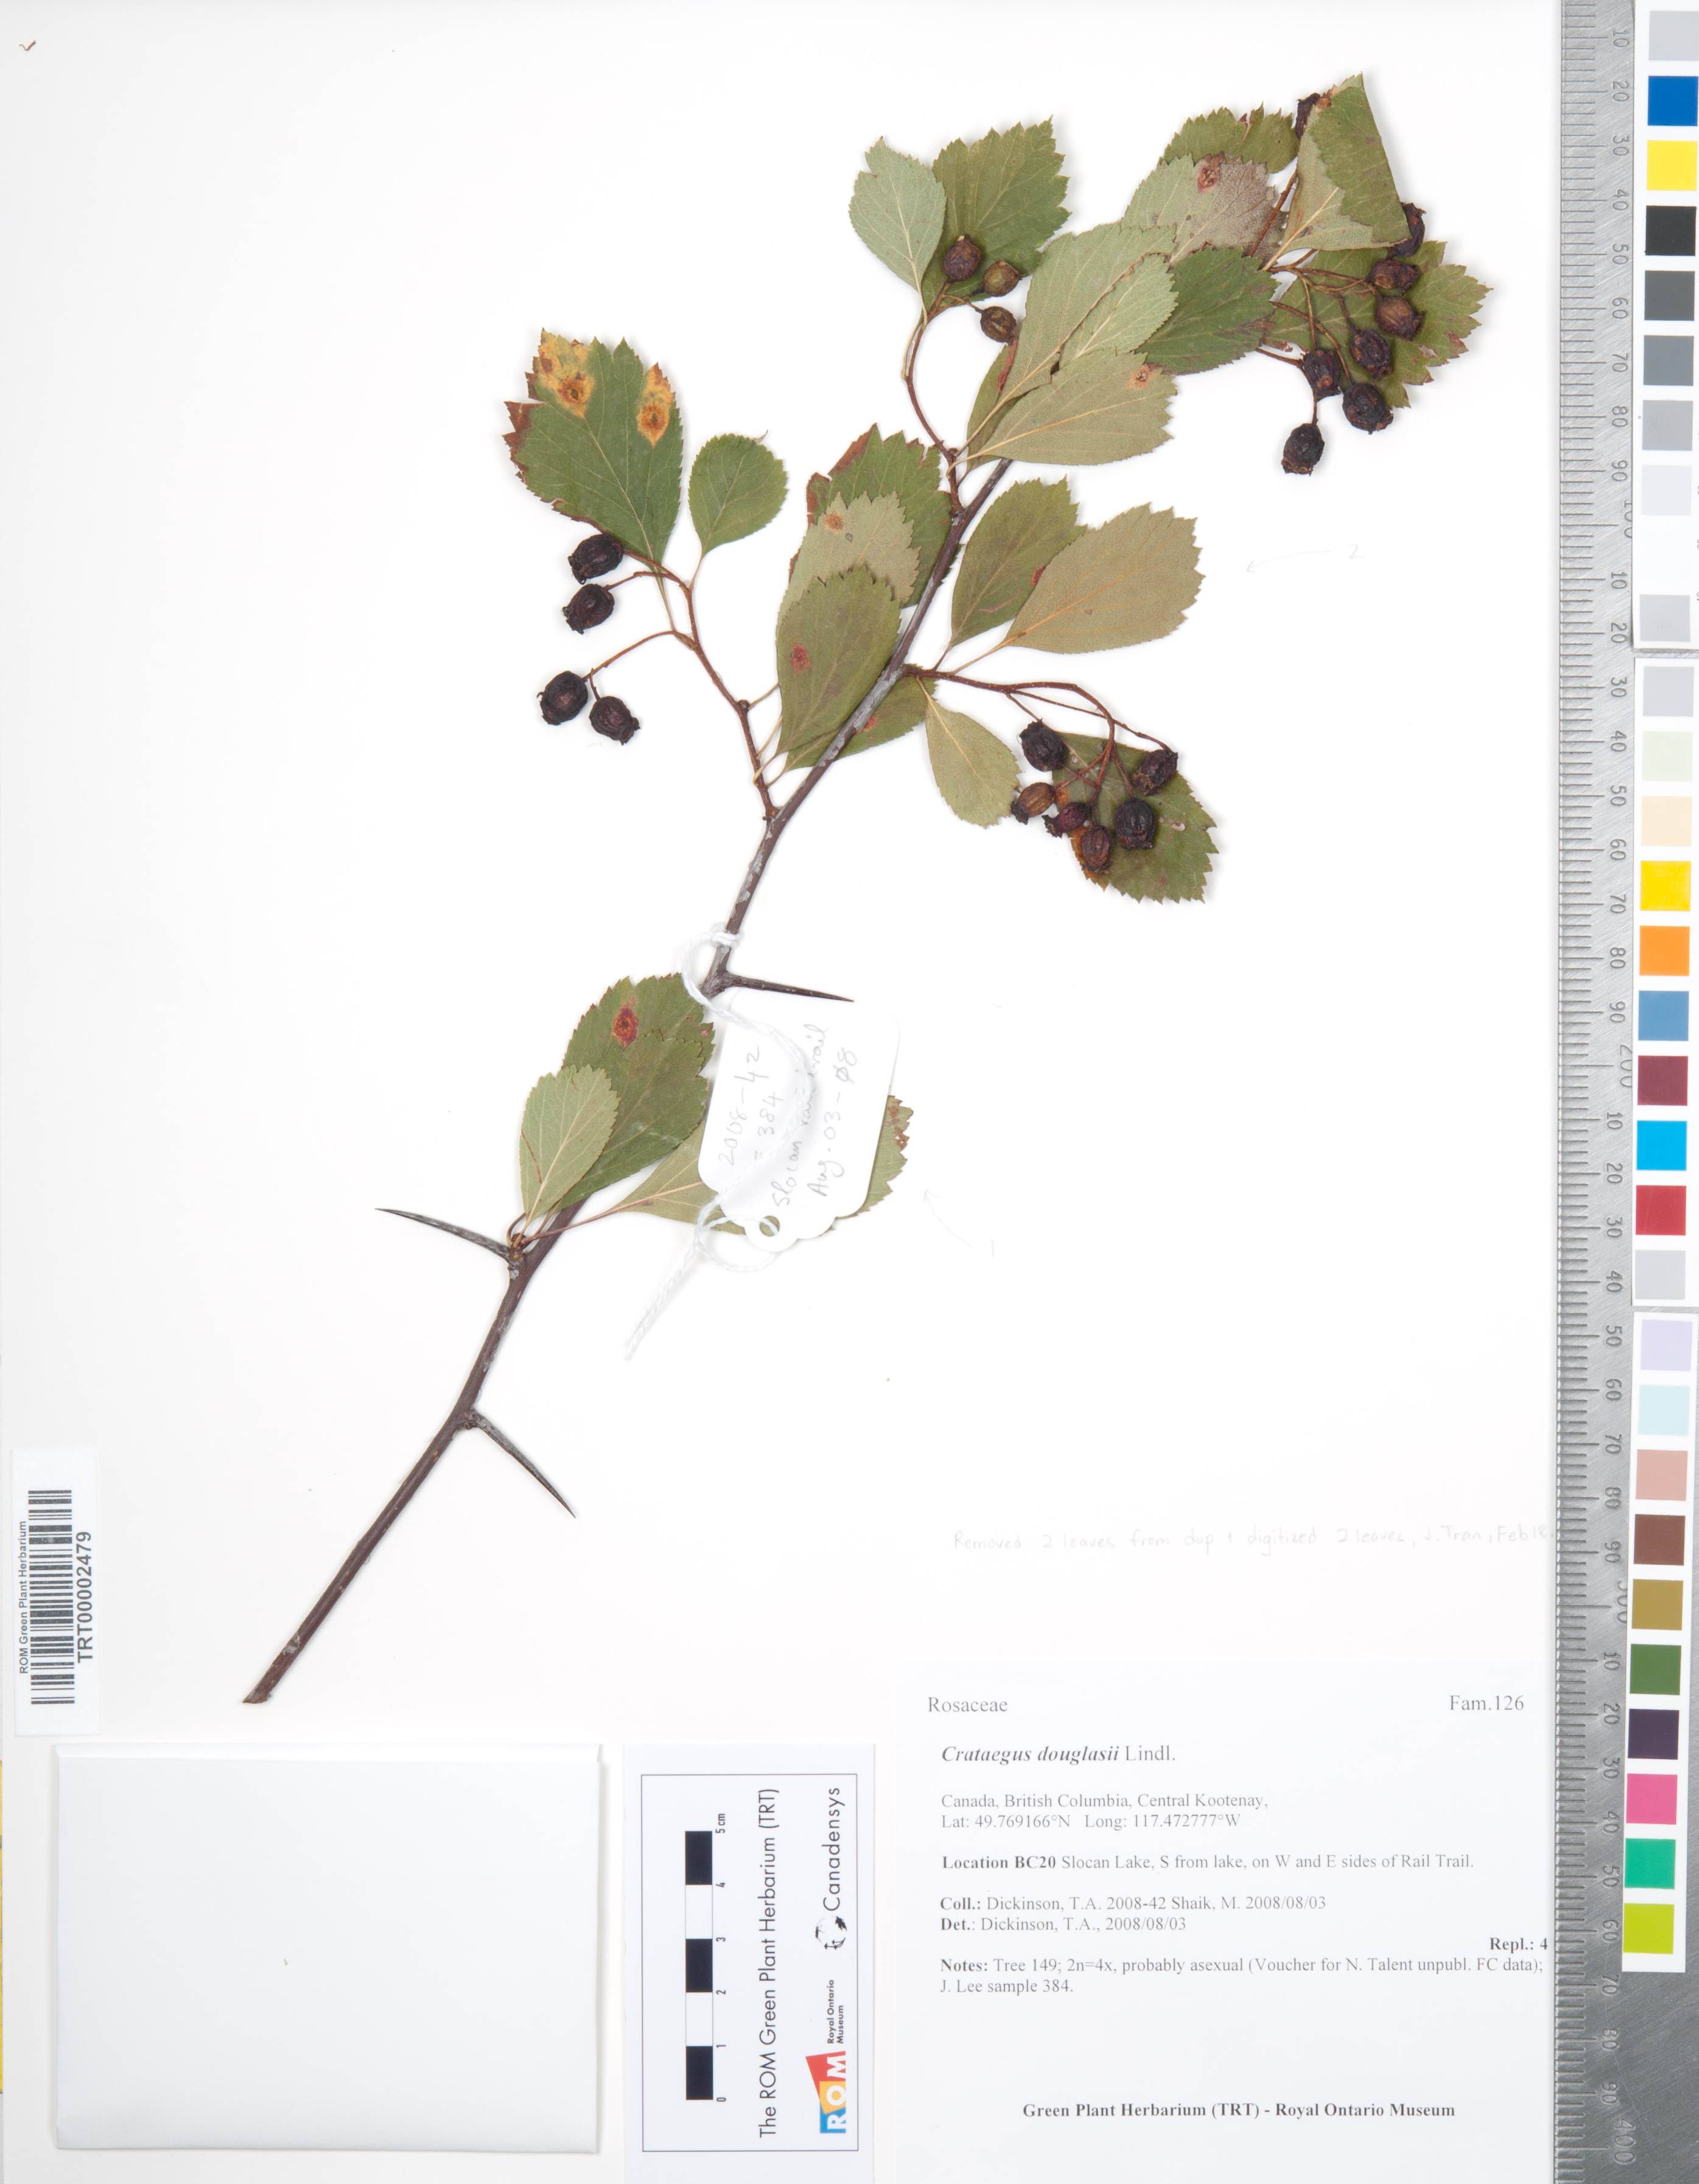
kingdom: Plantae
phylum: Tracheophyta
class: Magnoliopsida
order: Rosales
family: Rosaceae
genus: Crataegus
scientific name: Crataegus douglasii
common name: Black hawthorn
